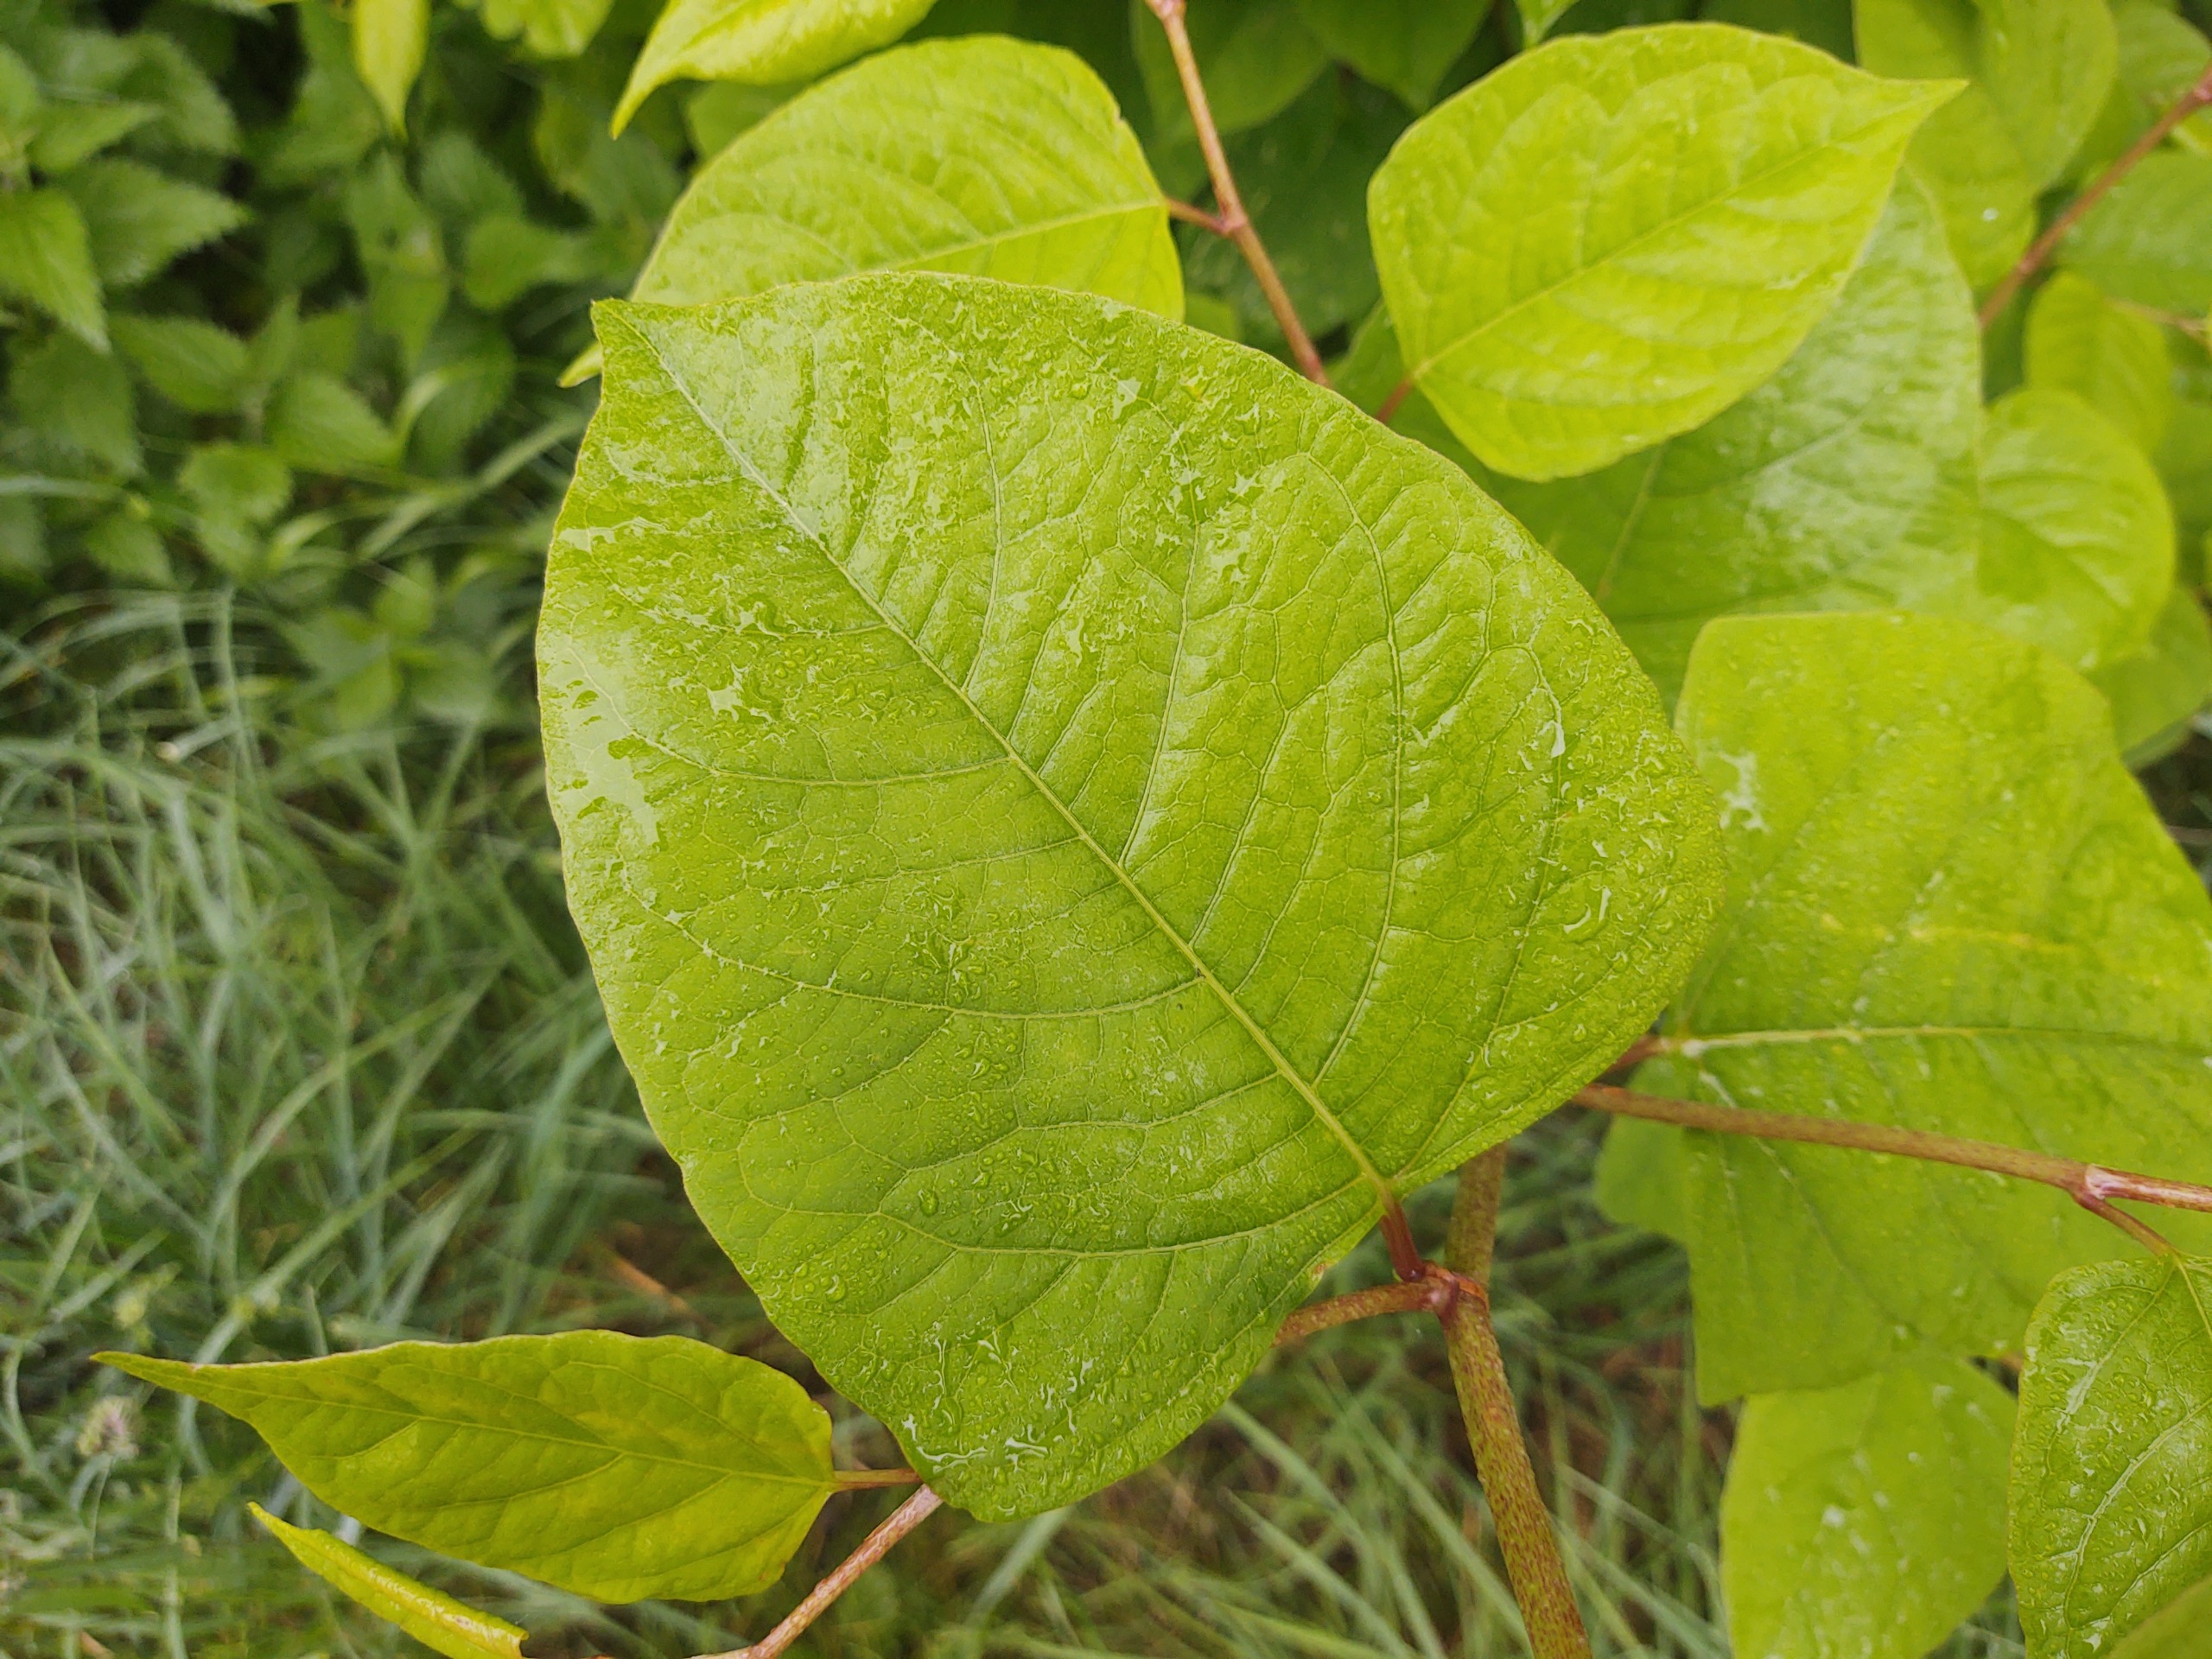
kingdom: Plantae
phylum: Tracheophyta
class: Magnoliopsida
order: Caryophyllales
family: Polygonaceae
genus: Reynoutria
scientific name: Reynoutria
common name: Pileurt (Reynoutria-slægten)
